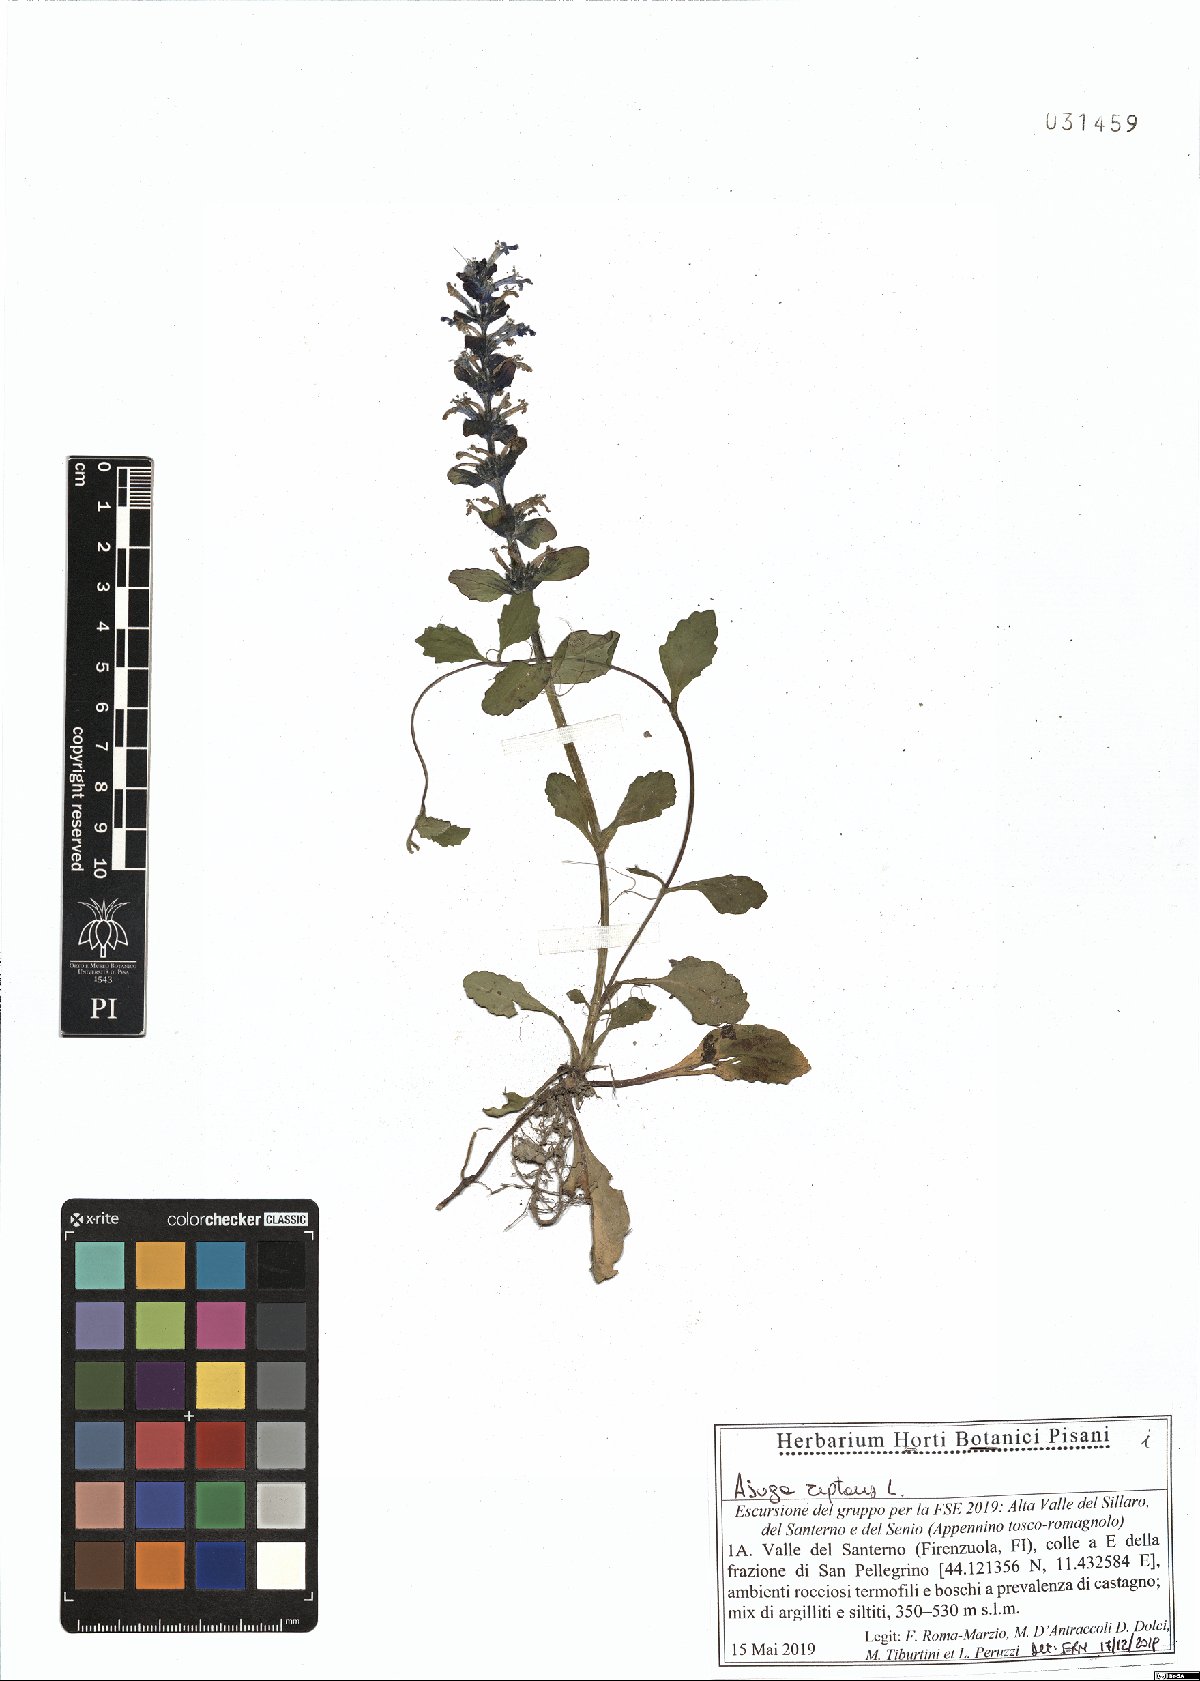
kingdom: Plantae
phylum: Tracheophyta
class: Magnoliopsida
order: Lamiales
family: Lamiaceae
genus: Ajuga
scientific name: Ajuga reptans
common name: Bugle
